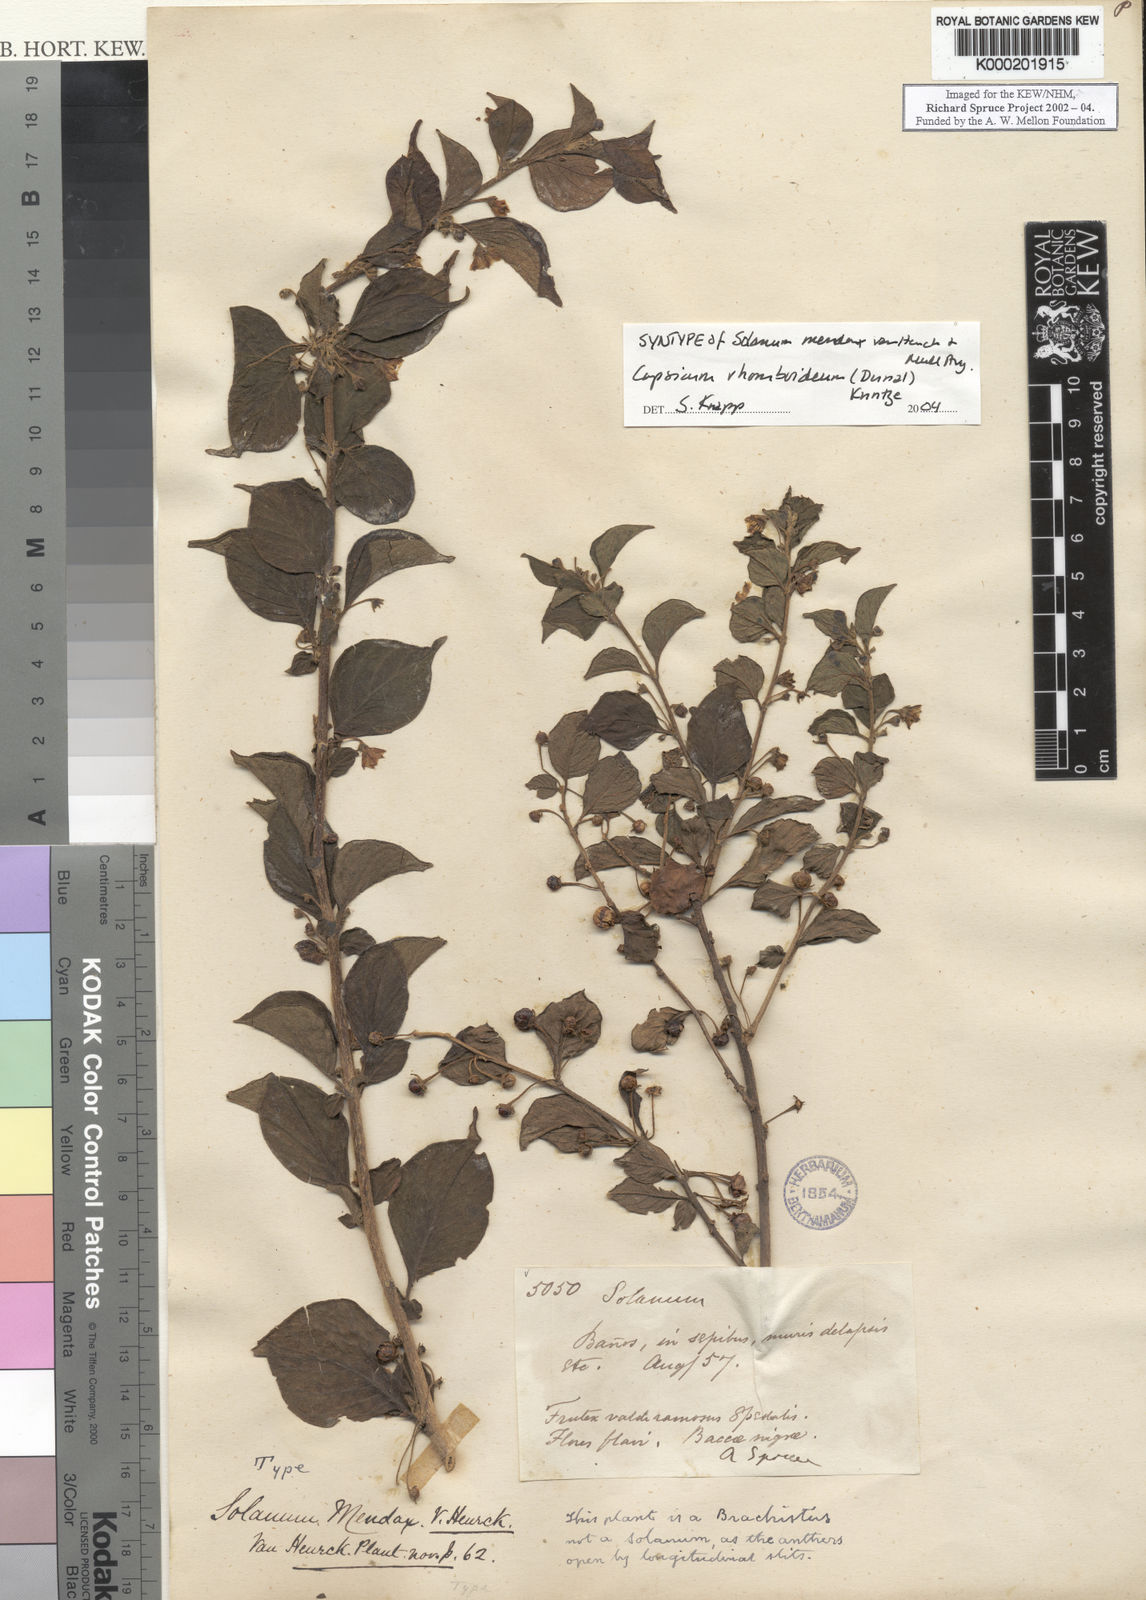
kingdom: Plantae
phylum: Tracheophyta
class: Magnoliopsida
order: Solanales
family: Solanaceae
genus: Brachistus
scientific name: Brachistus
